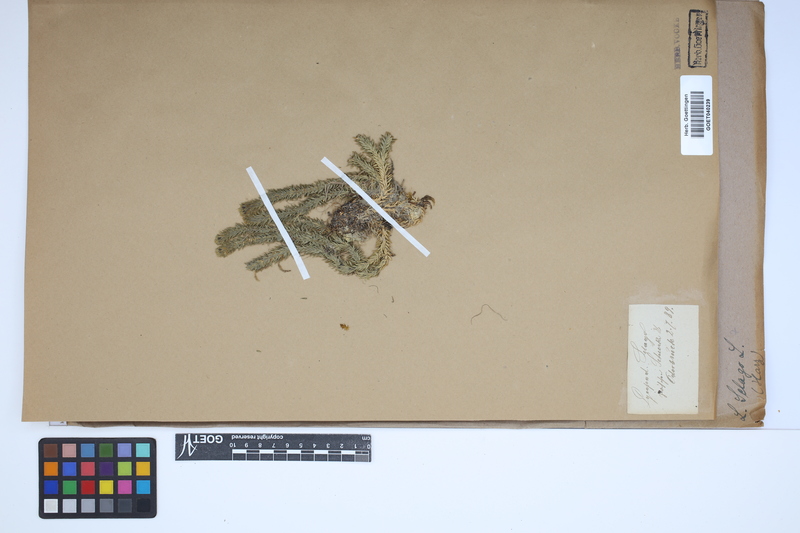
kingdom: Plantae
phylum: Tracheophyta
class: Lycopodiopsida
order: Lycopodiales
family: Lycopodiaceae
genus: Huperzia
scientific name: Huperzia selago
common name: Northern firmoss
